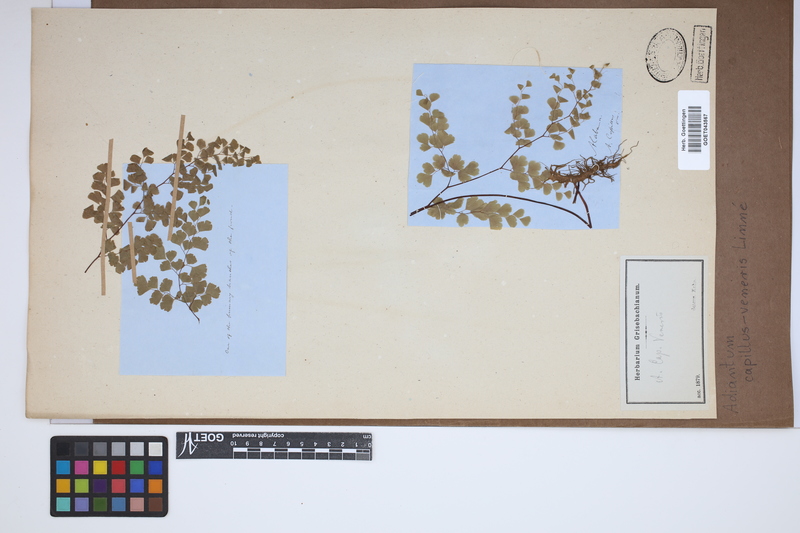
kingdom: Plantae
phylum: Tracheophyta
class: Polypodiopsida
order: Polypodiales
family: Pteridaceae
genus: Adiantum
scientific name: Adiantum capillus-veneris
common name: Maidenhair fern
